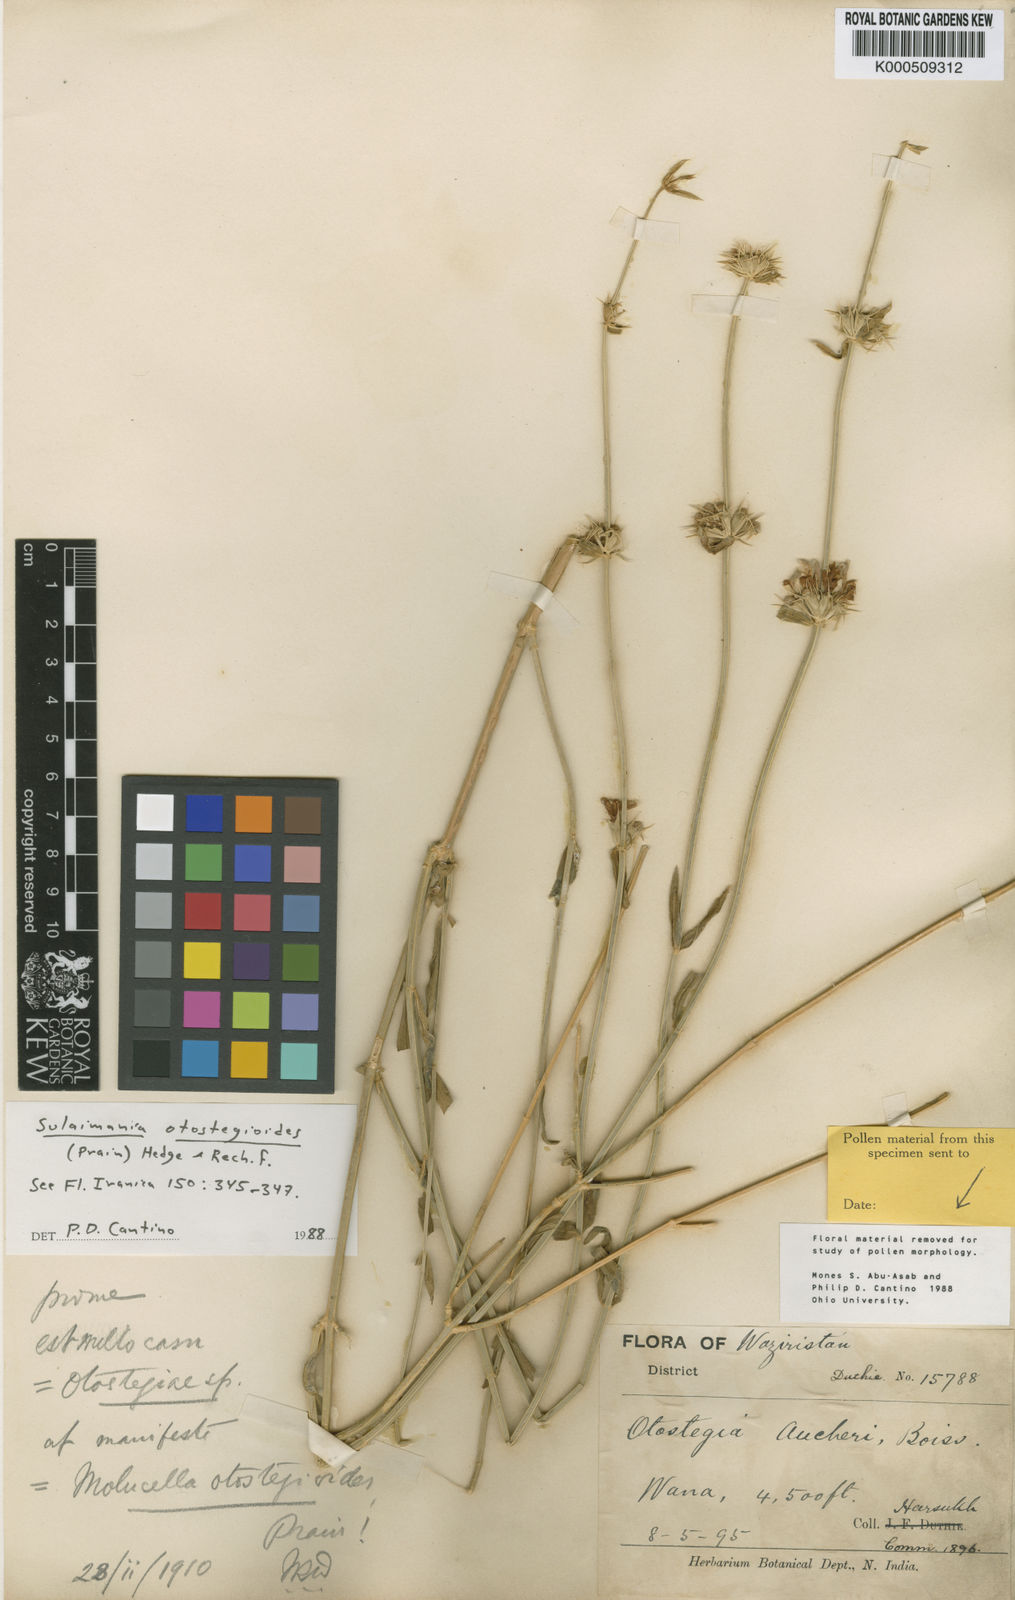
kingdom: Plantae
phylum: Tracheophyta
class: Magnoliopsida
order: Lamiales
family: Lamiaceae
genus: Moluccella
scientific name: Moluccella otostegioides
